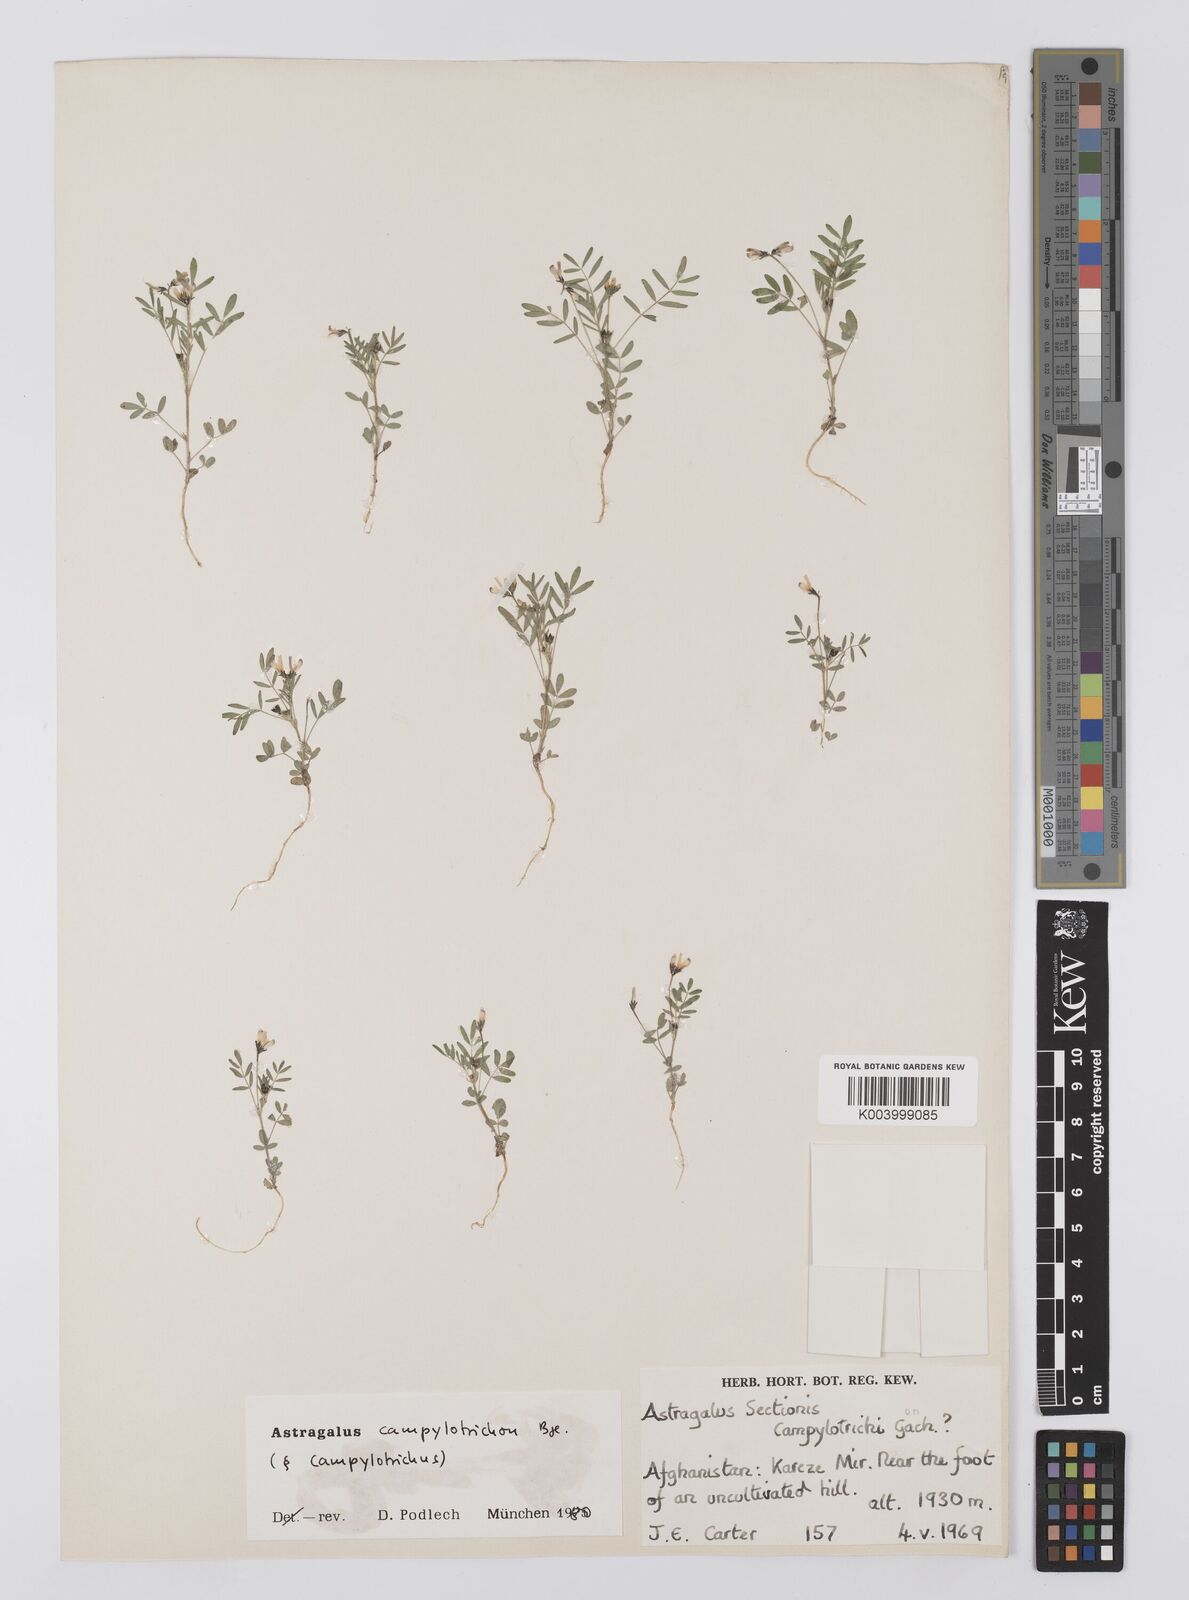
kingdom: Plantae
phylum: Tracheophyta
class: Magnoliopsida
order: Fabales
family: Fabaceae
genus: Astragalus
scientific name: Astragalus campylotrichus
